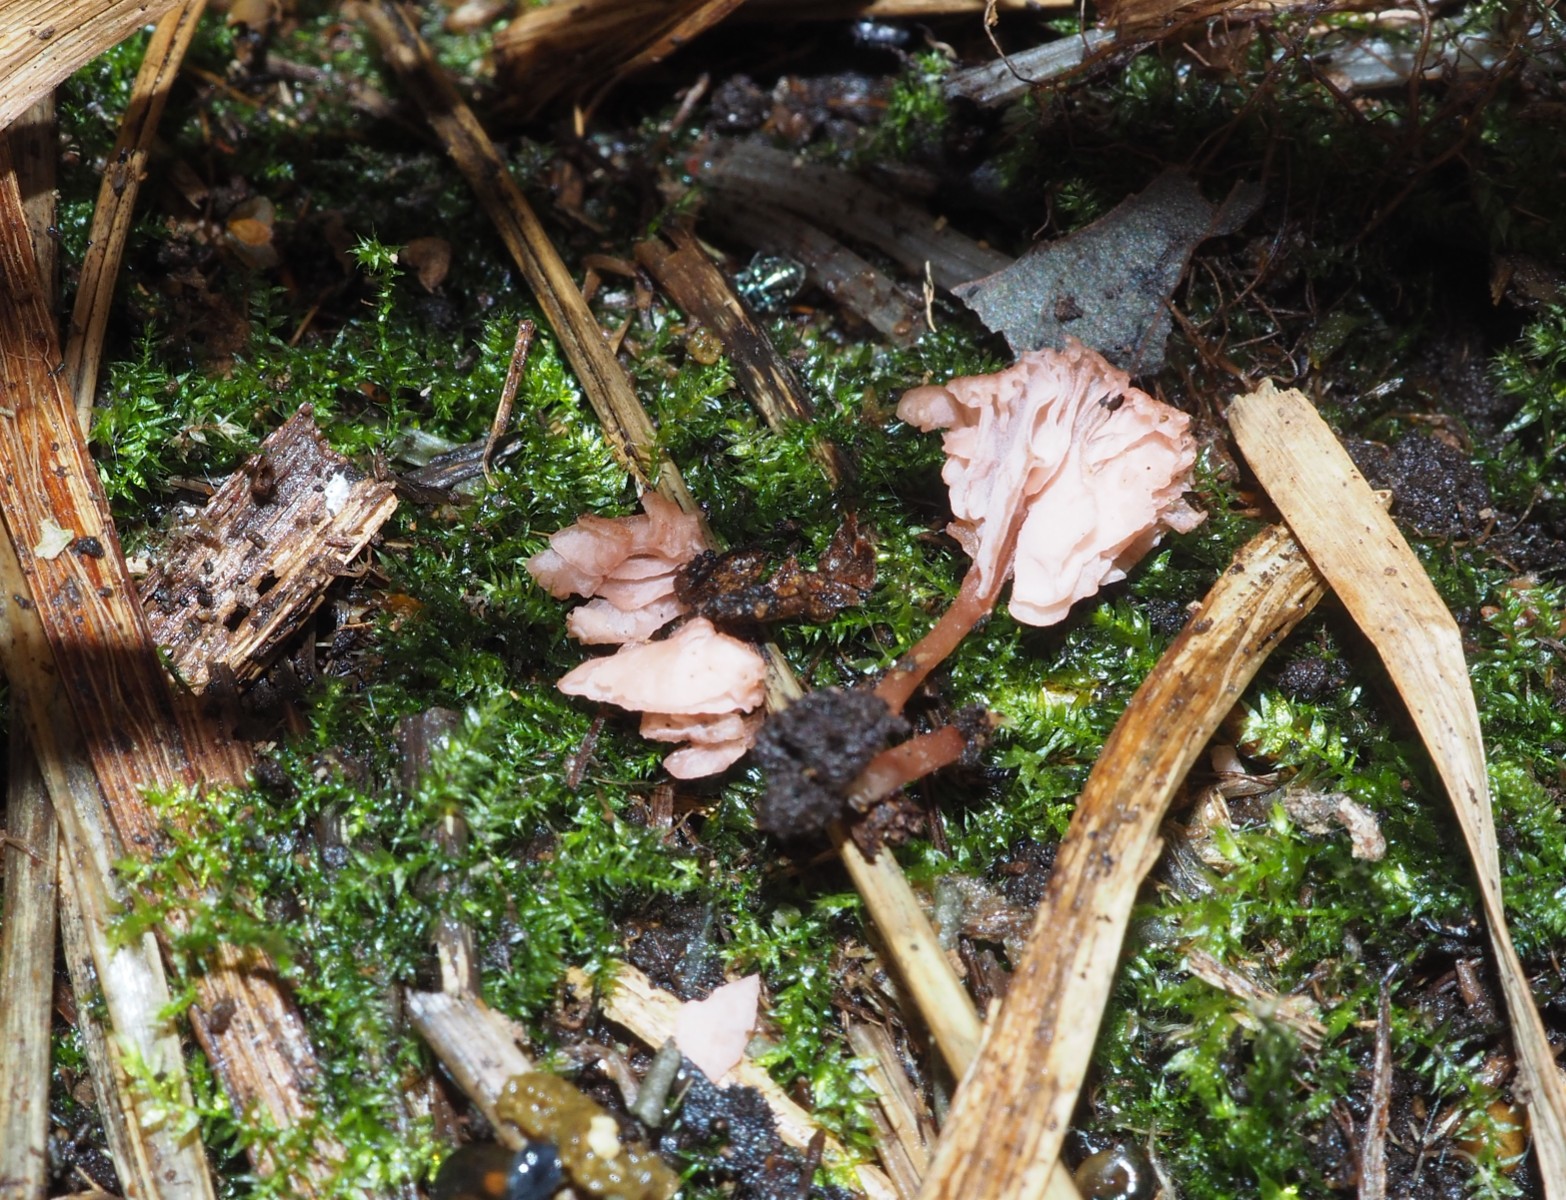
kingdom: Fungi
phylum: Basidiomycota
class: Agaricomycetes
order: Agaricales
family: Hydnangiaceae
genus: Laccaria
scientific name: Laccaria tortilis
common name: krybende ametysthat
